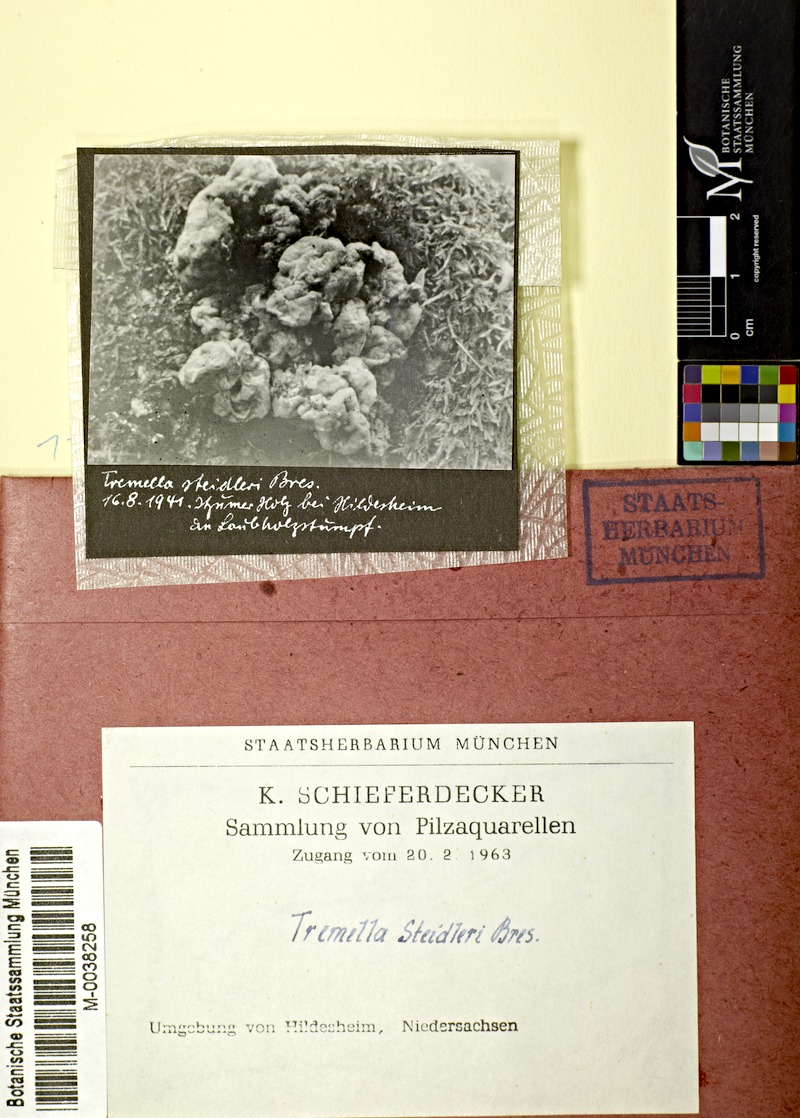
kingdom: Fungi
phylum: Basidiomycota
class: Tremellomycetes
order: Tremellales
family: Tremellaceae
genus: Tremella
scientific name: Tremella steidleri
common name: Brown brain
